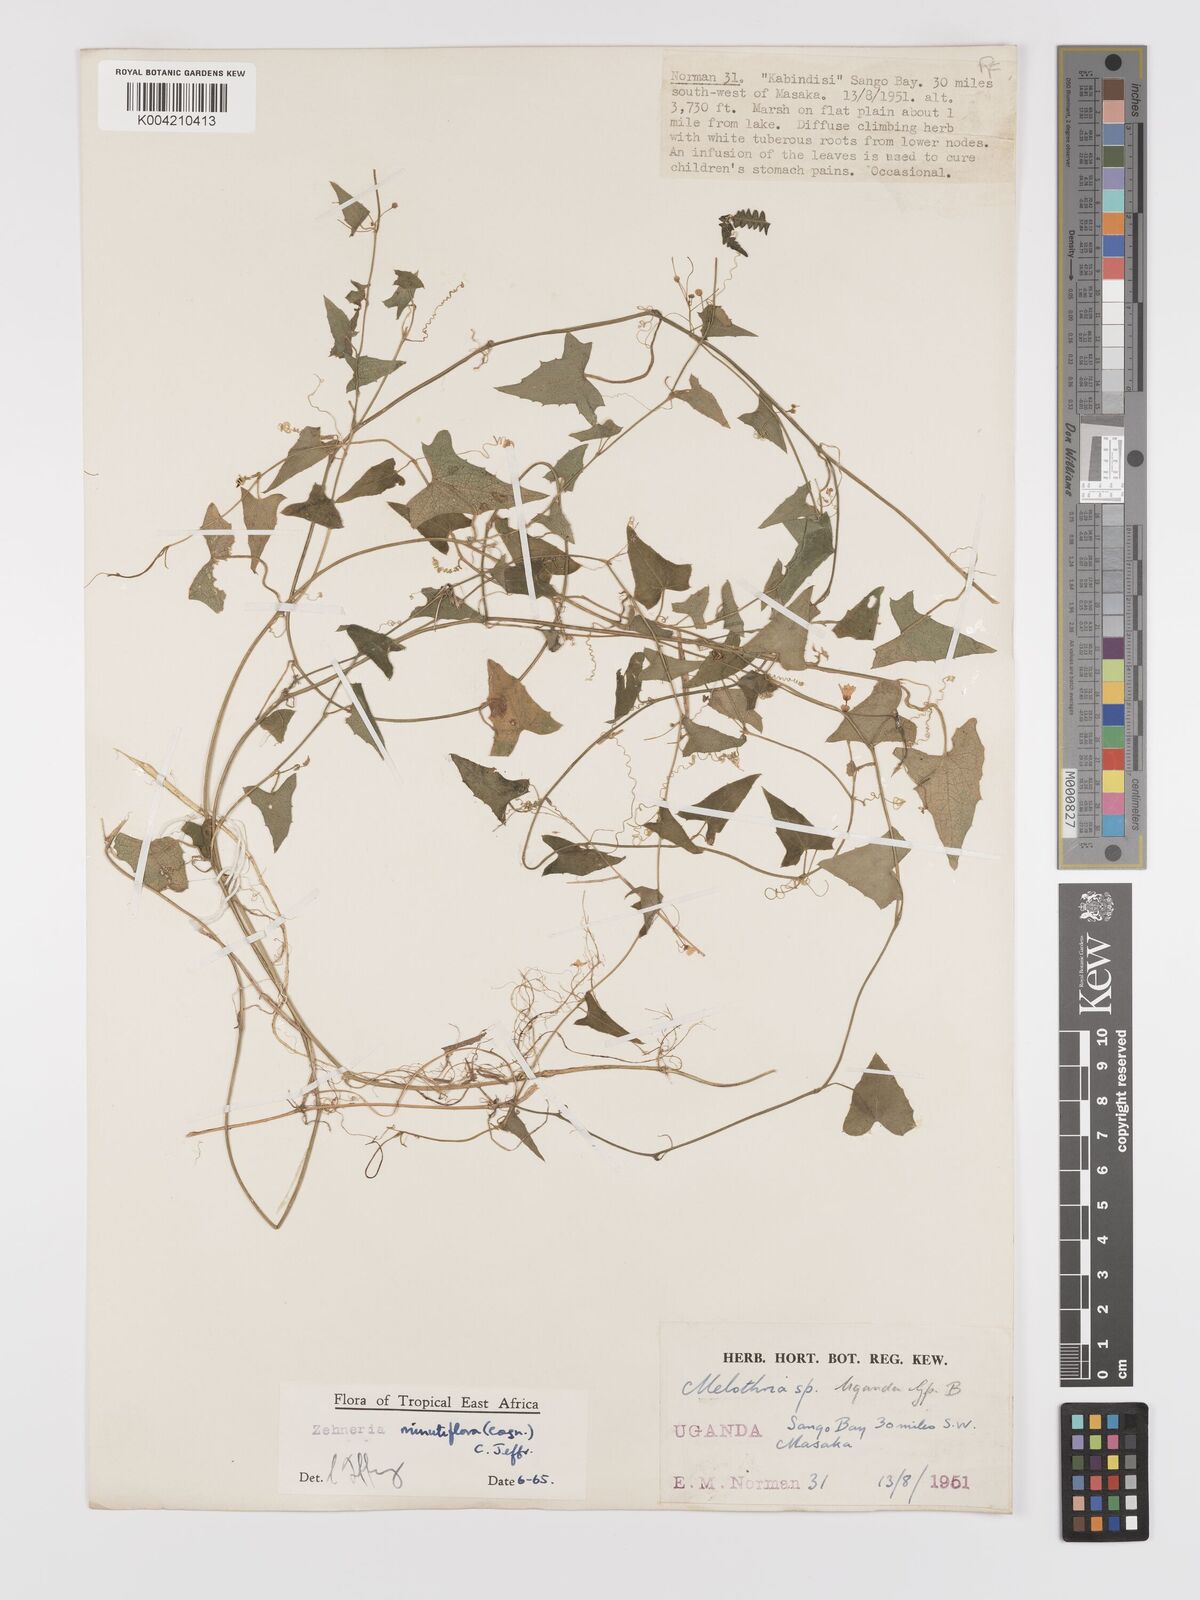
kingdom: Plantae
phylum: Tracheophyta
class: Magnoliopsida
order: Cucurbitales
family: Cucurbitaceae
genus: Zehneria
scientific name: Zehneria minutiflora
